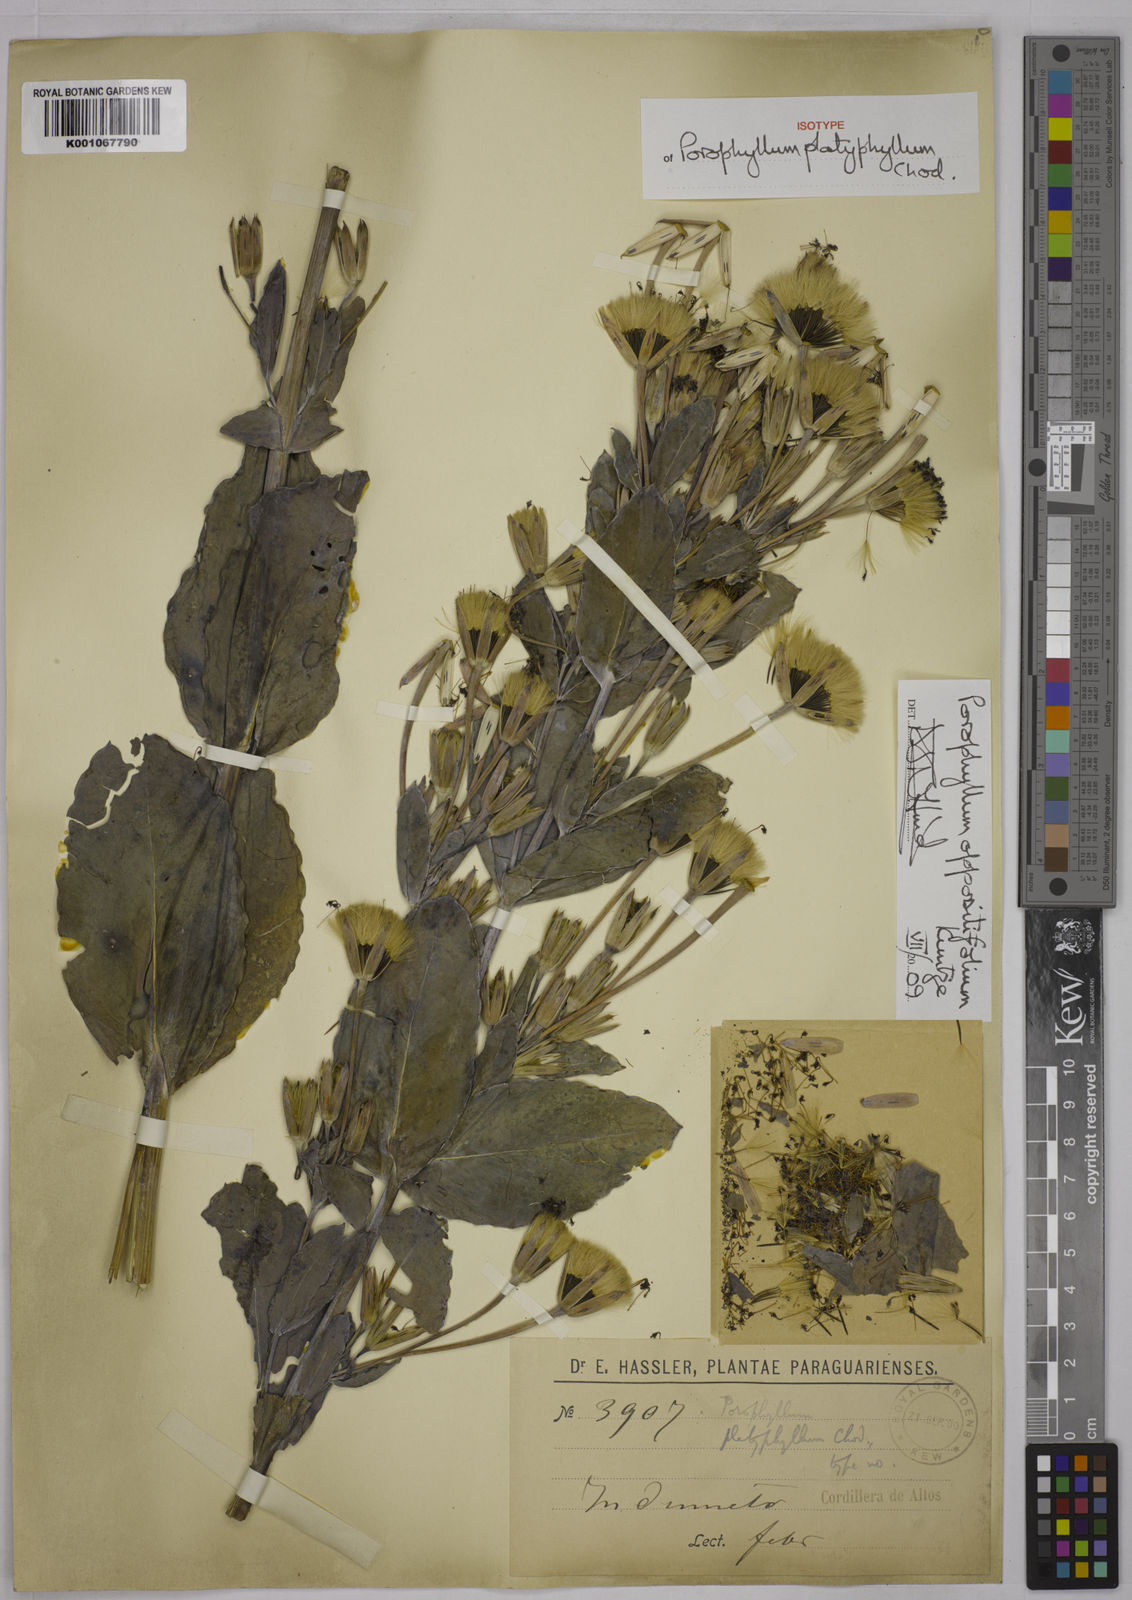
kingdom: Plantae
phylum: Tracheophyta
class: Magnoliopsida
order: Asterales
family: Asteraceae
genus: Porophyllum
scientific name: Porophyllum
